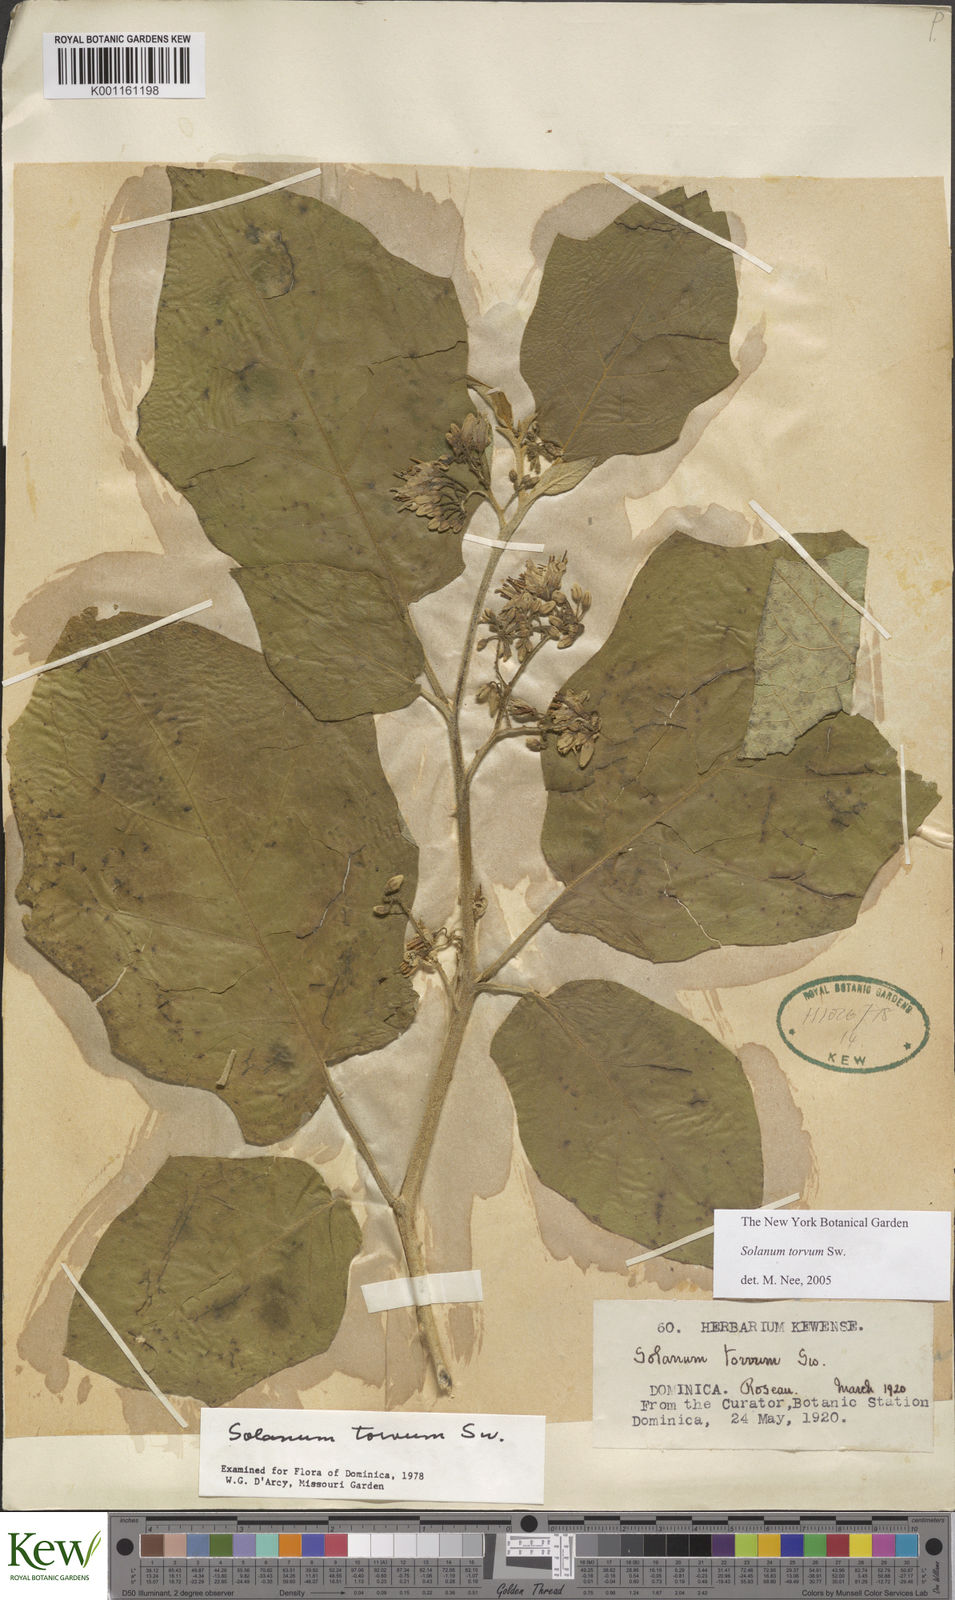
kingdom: Plantae
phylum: Tracheophyta
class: Magnoliopsida
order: Solanales
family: Solanaceae
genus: Solanum
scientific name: Solanum torvum
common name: Turkey berry
